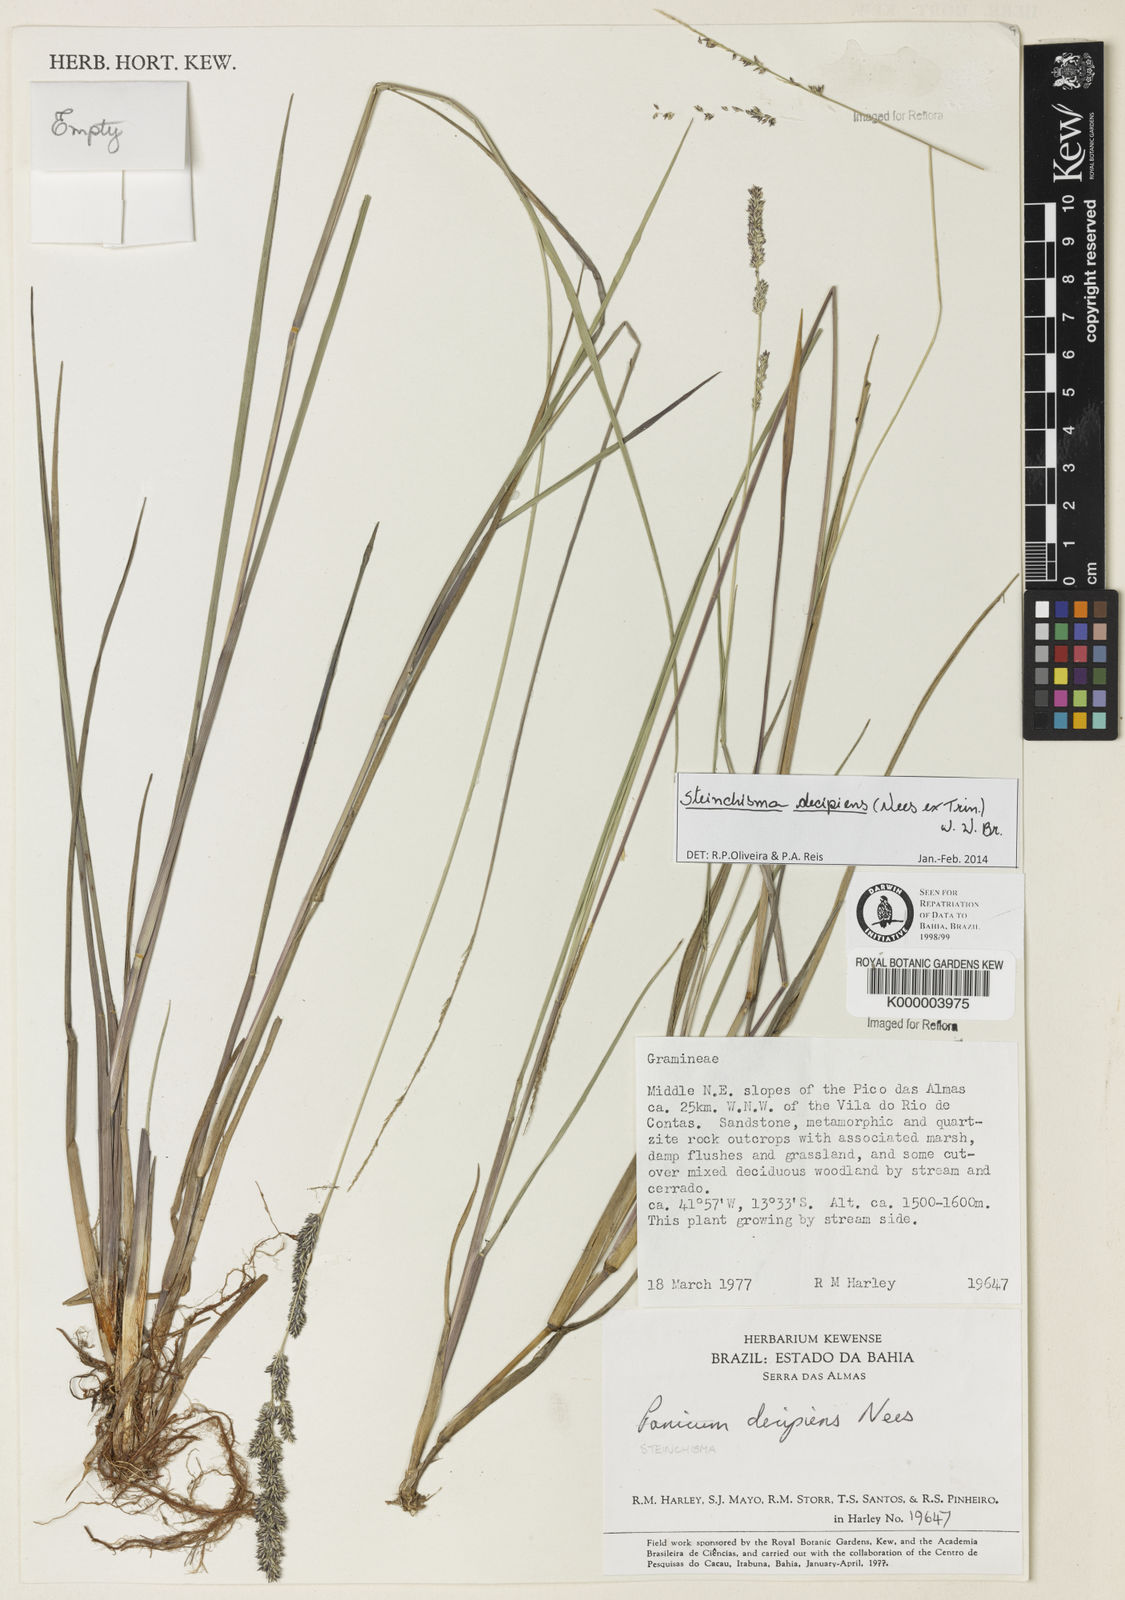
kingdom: Plantae
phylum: Tracheophyta
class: Liliopsida
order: Poales
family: Poaceae
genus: Lasiacis
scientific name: Lasiacis
